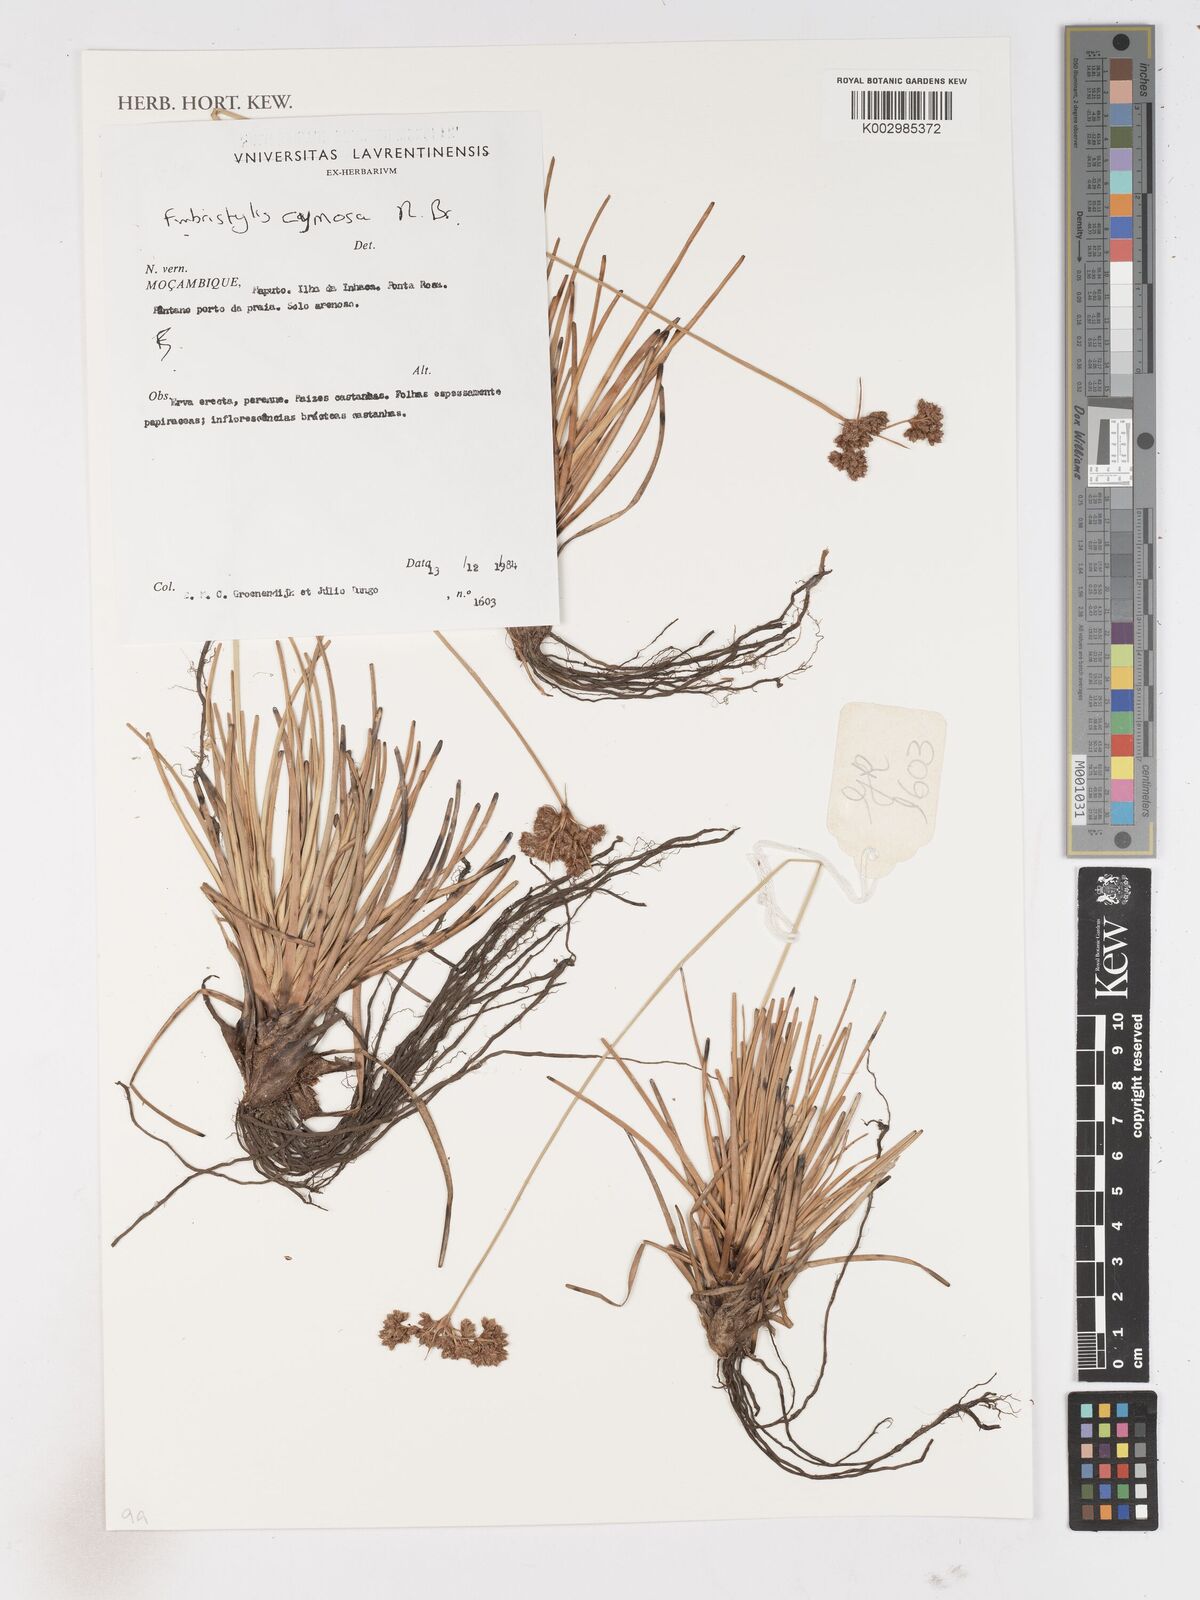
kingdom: Plantae
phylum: Tracheophyta
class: Liliopsida
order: Poales
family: Cyperaceae
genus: Fimbristylis
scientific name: Fimbristylis cymosa
